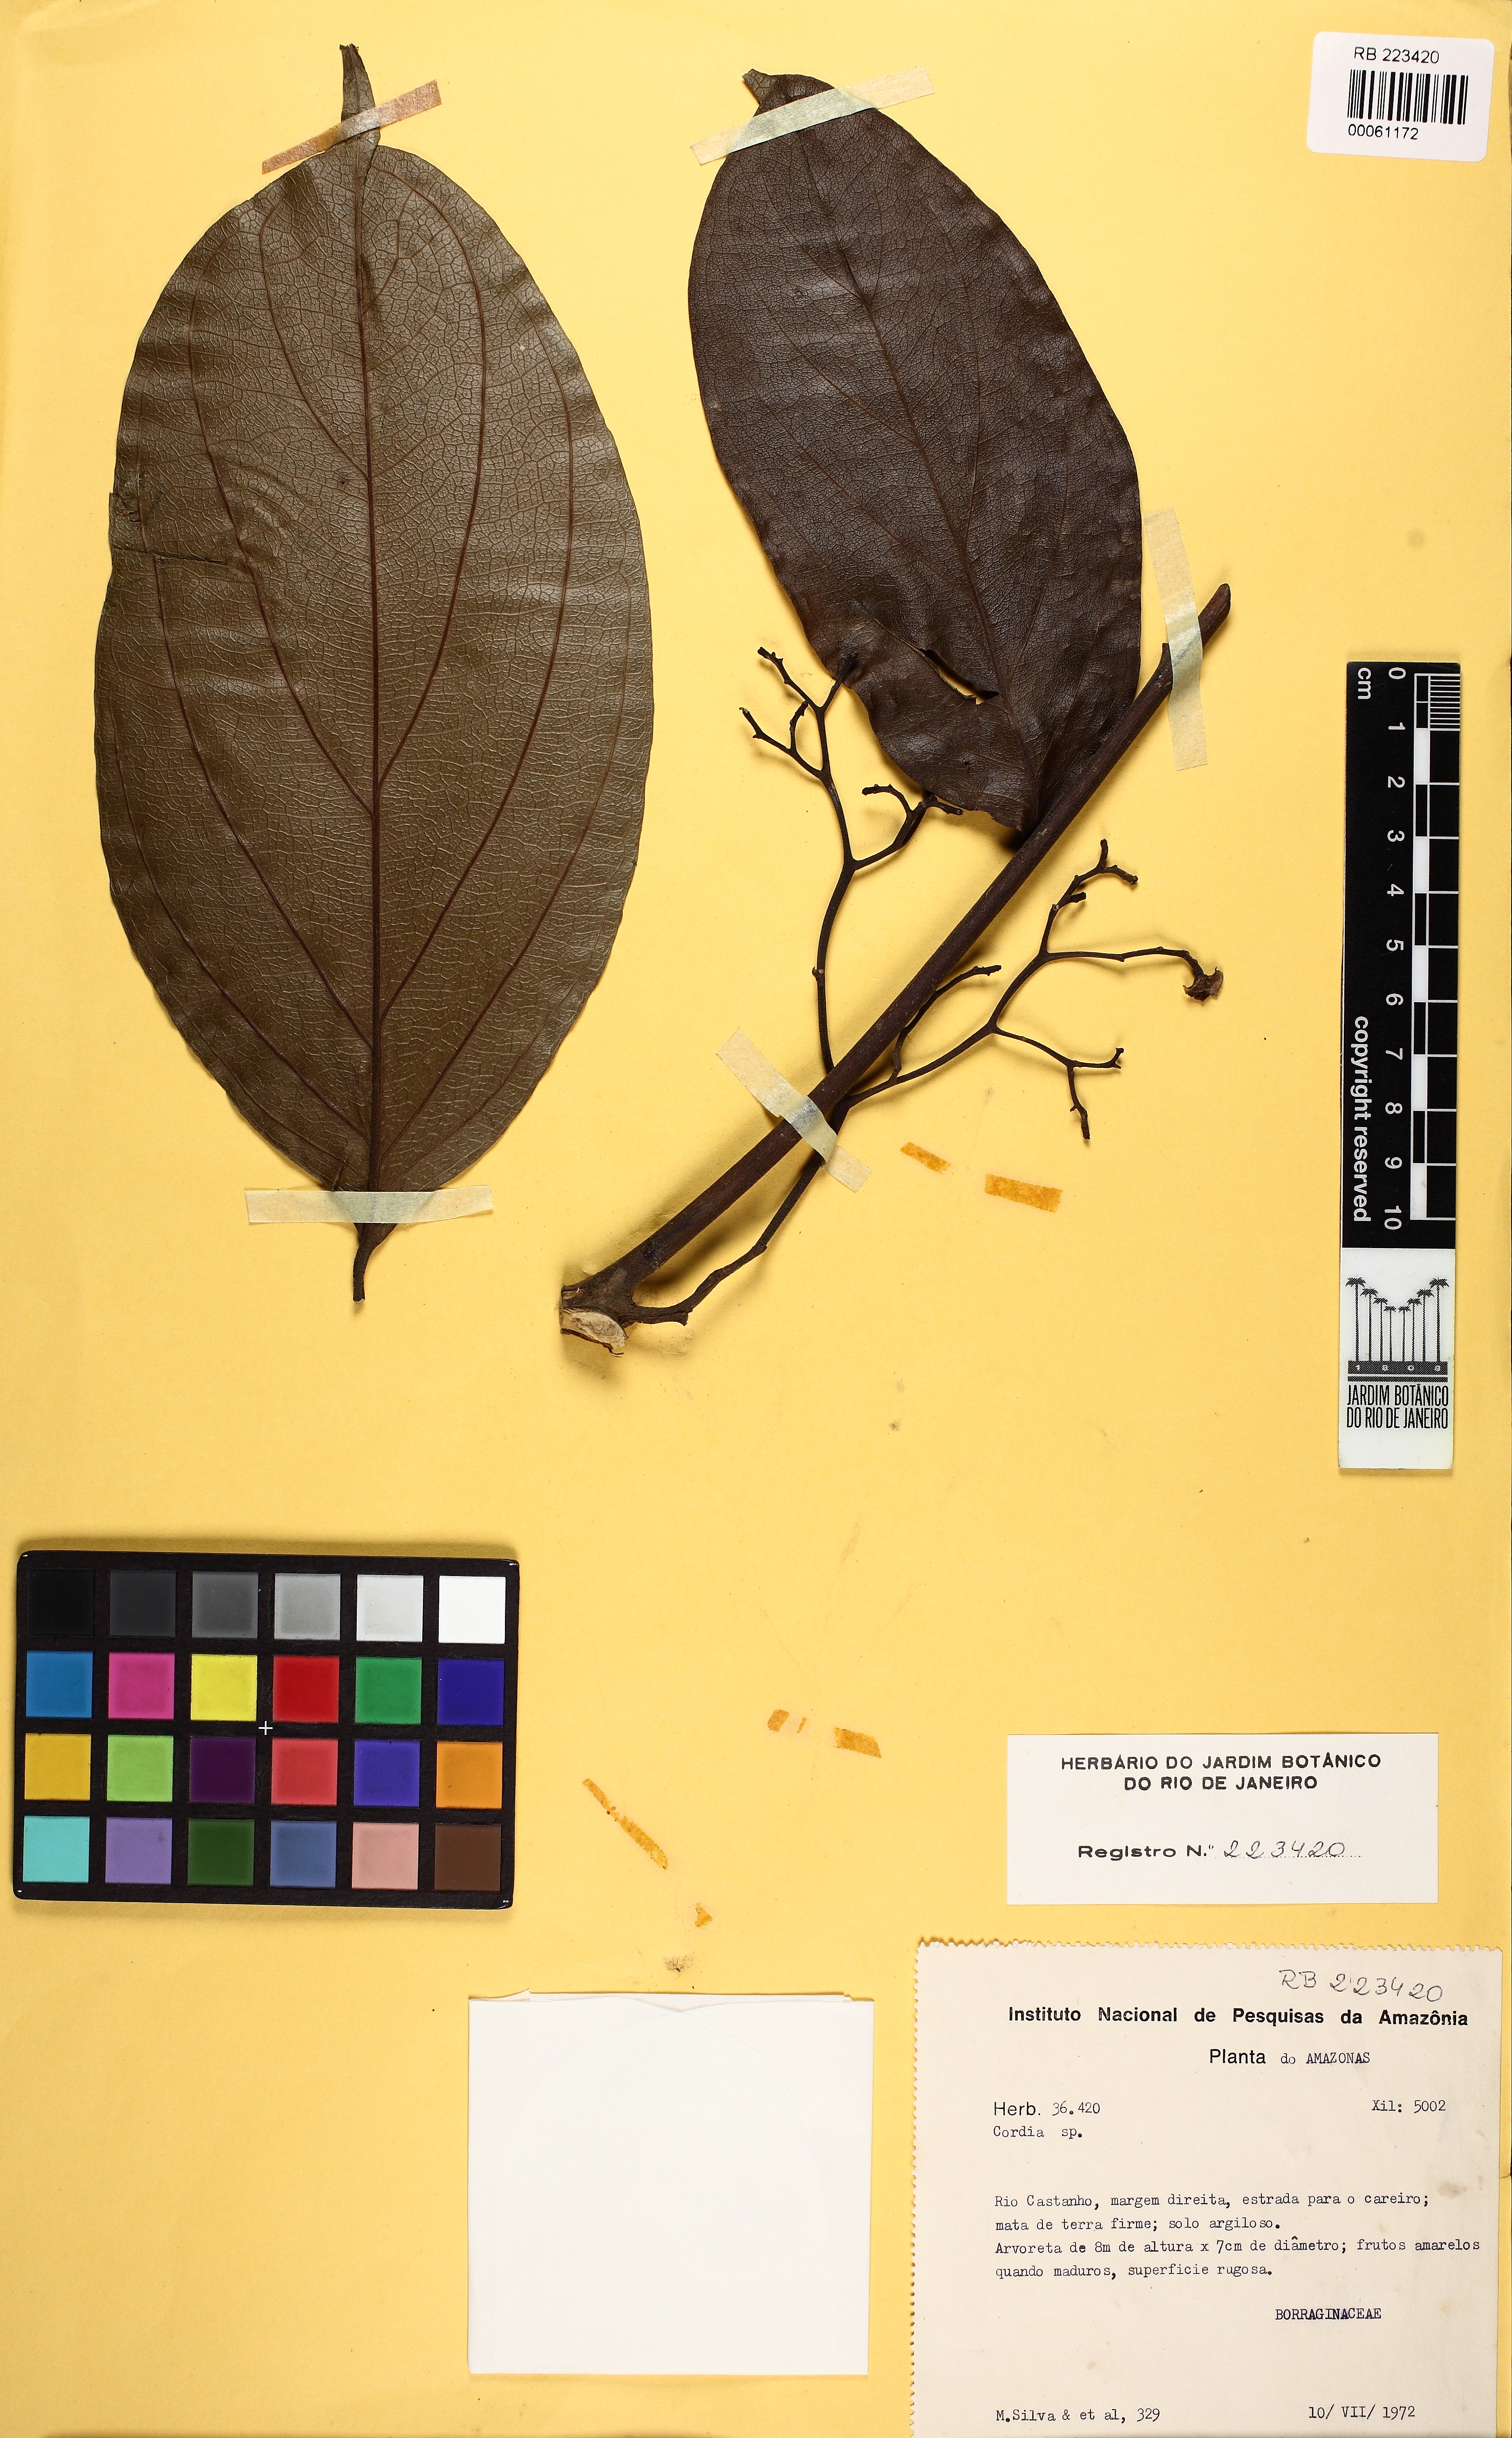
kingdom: Plantae
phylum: Tracheophyta
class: Magnoliopsida
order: Boraginales
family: Cordiaceae
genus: Cordia
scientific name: Cordia
